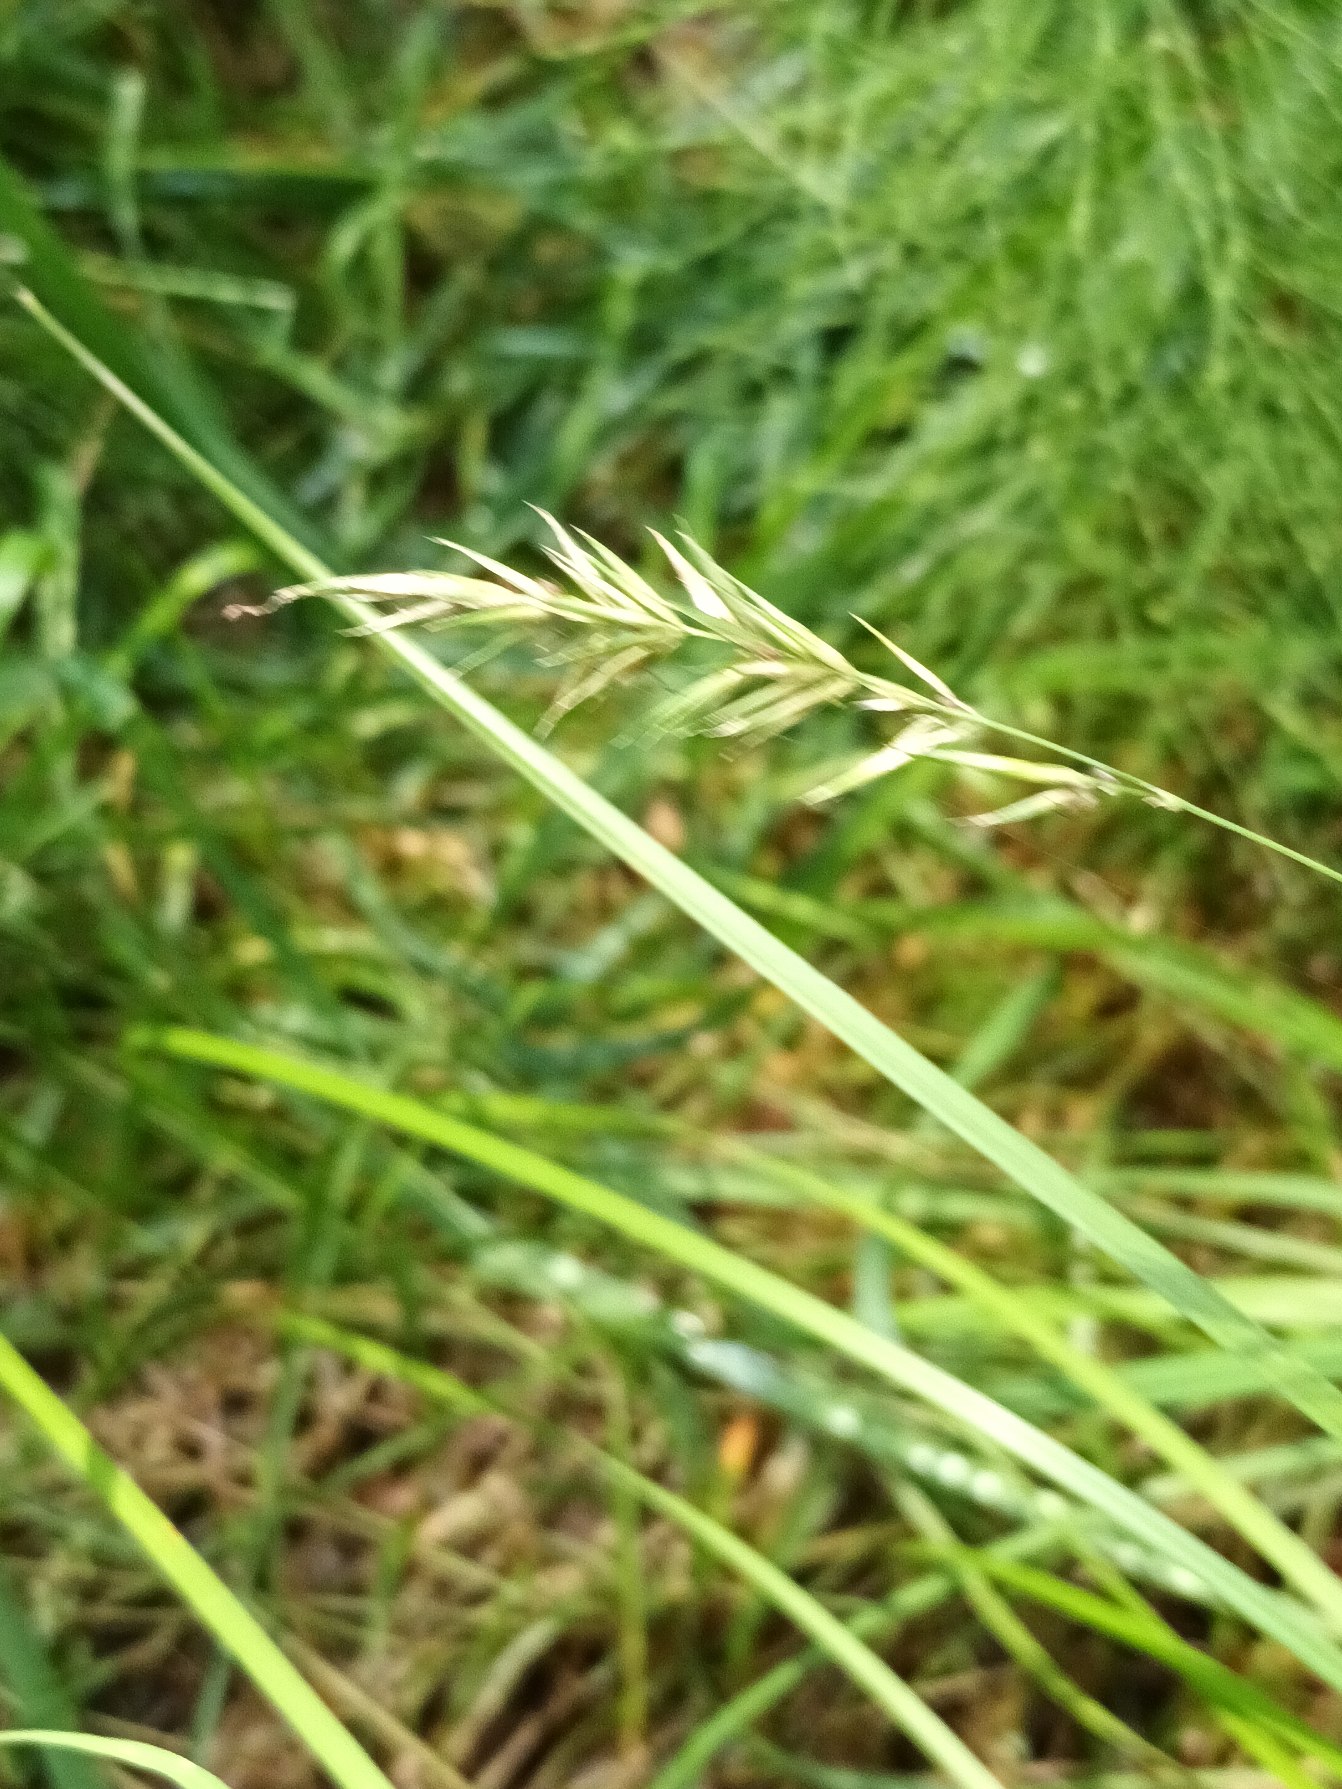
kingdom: Plantae
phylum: Tracheophyta
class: Liliopsida
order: Poales
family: Poaceae
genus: Anthoxanthum
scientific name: Anthoxanthum odoratum
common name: Vellugtende gulaks
